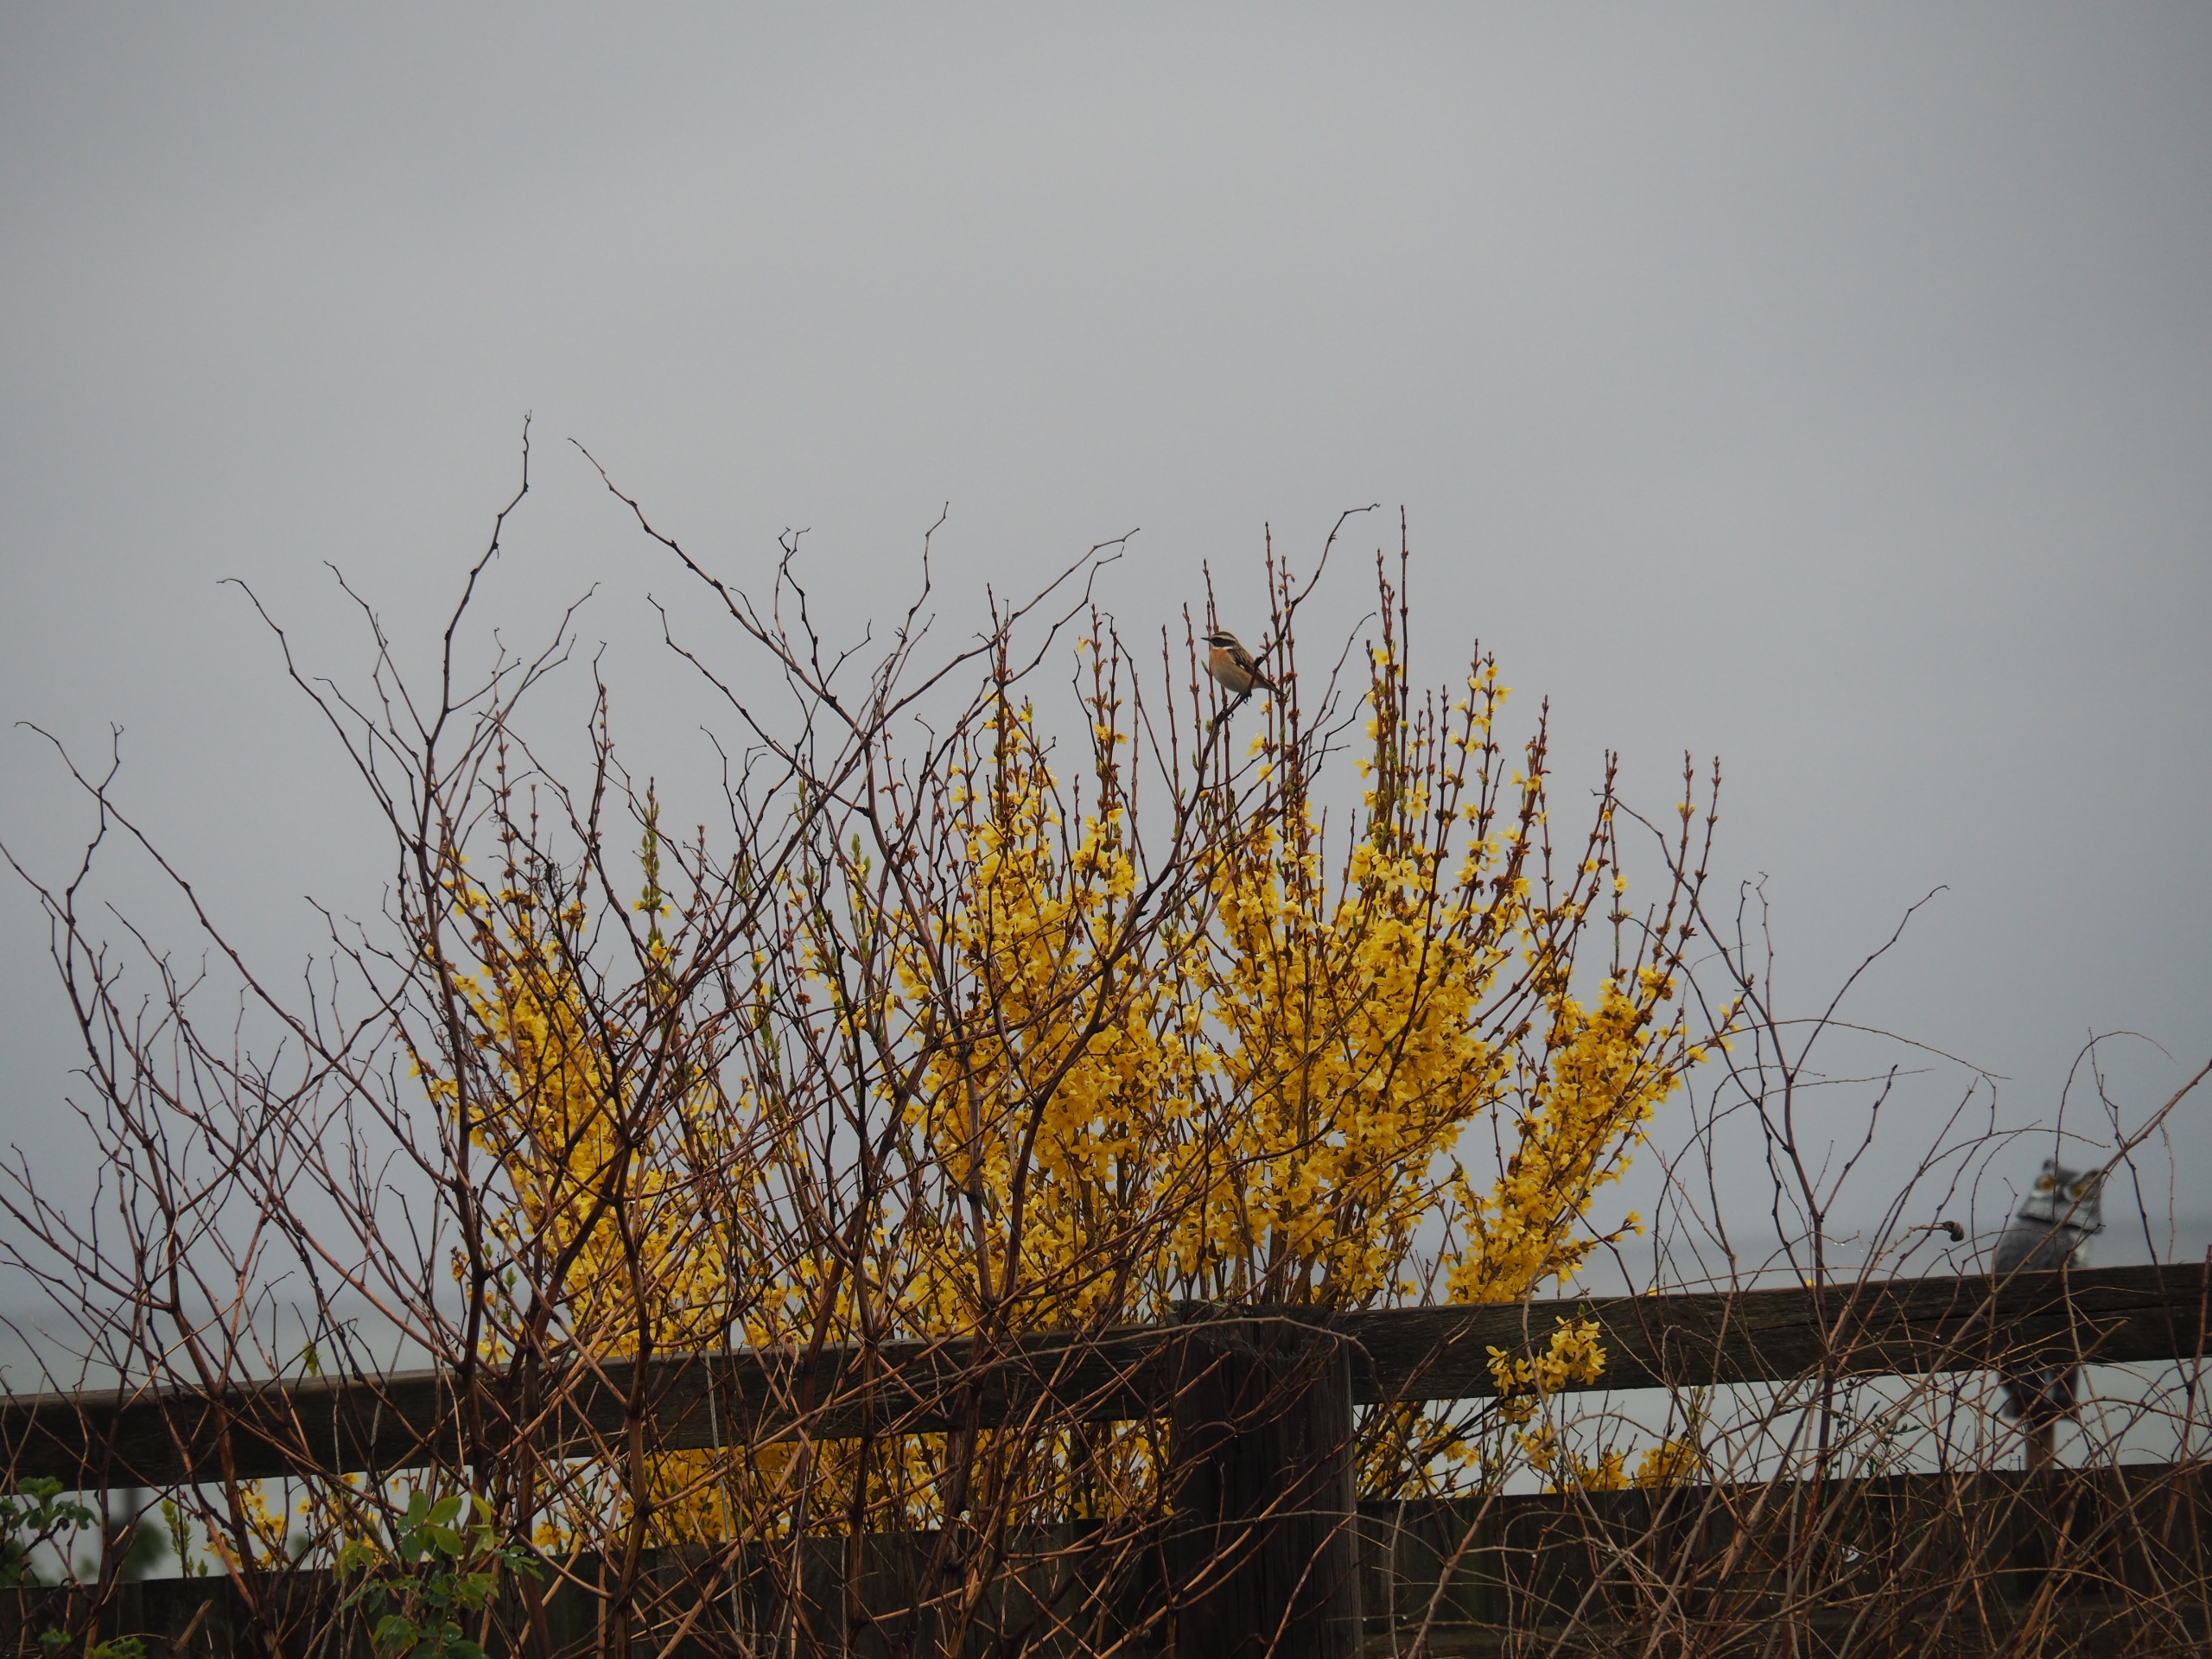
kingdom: Animalia
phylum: Chordata
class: Aves
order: Passeriformes
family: Muscicapidae
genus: Saxicola
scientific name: Saxicola rubetra
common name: Bynkefugl
